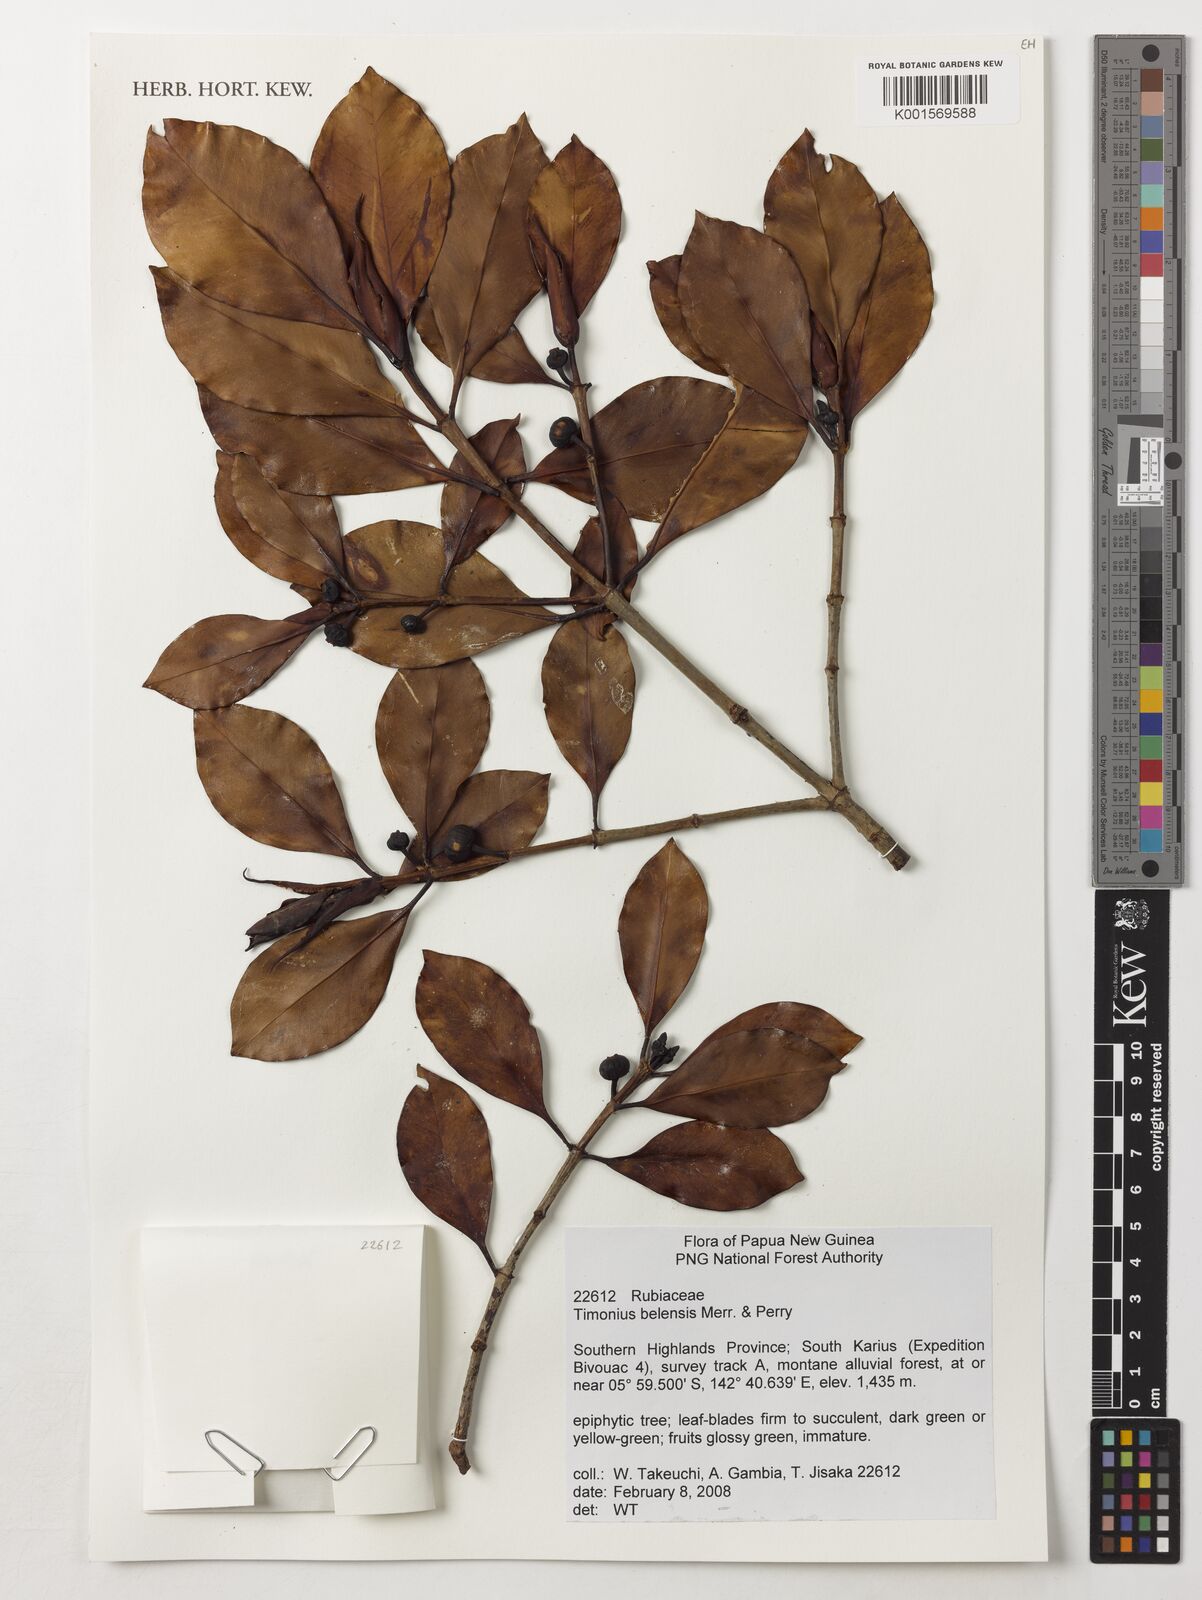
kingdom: Plantae
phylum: Tracheophyta
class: Magnoliopsida
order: Gentianales
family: Rubiaceae
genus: Timonius
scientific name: Timonius belensis
